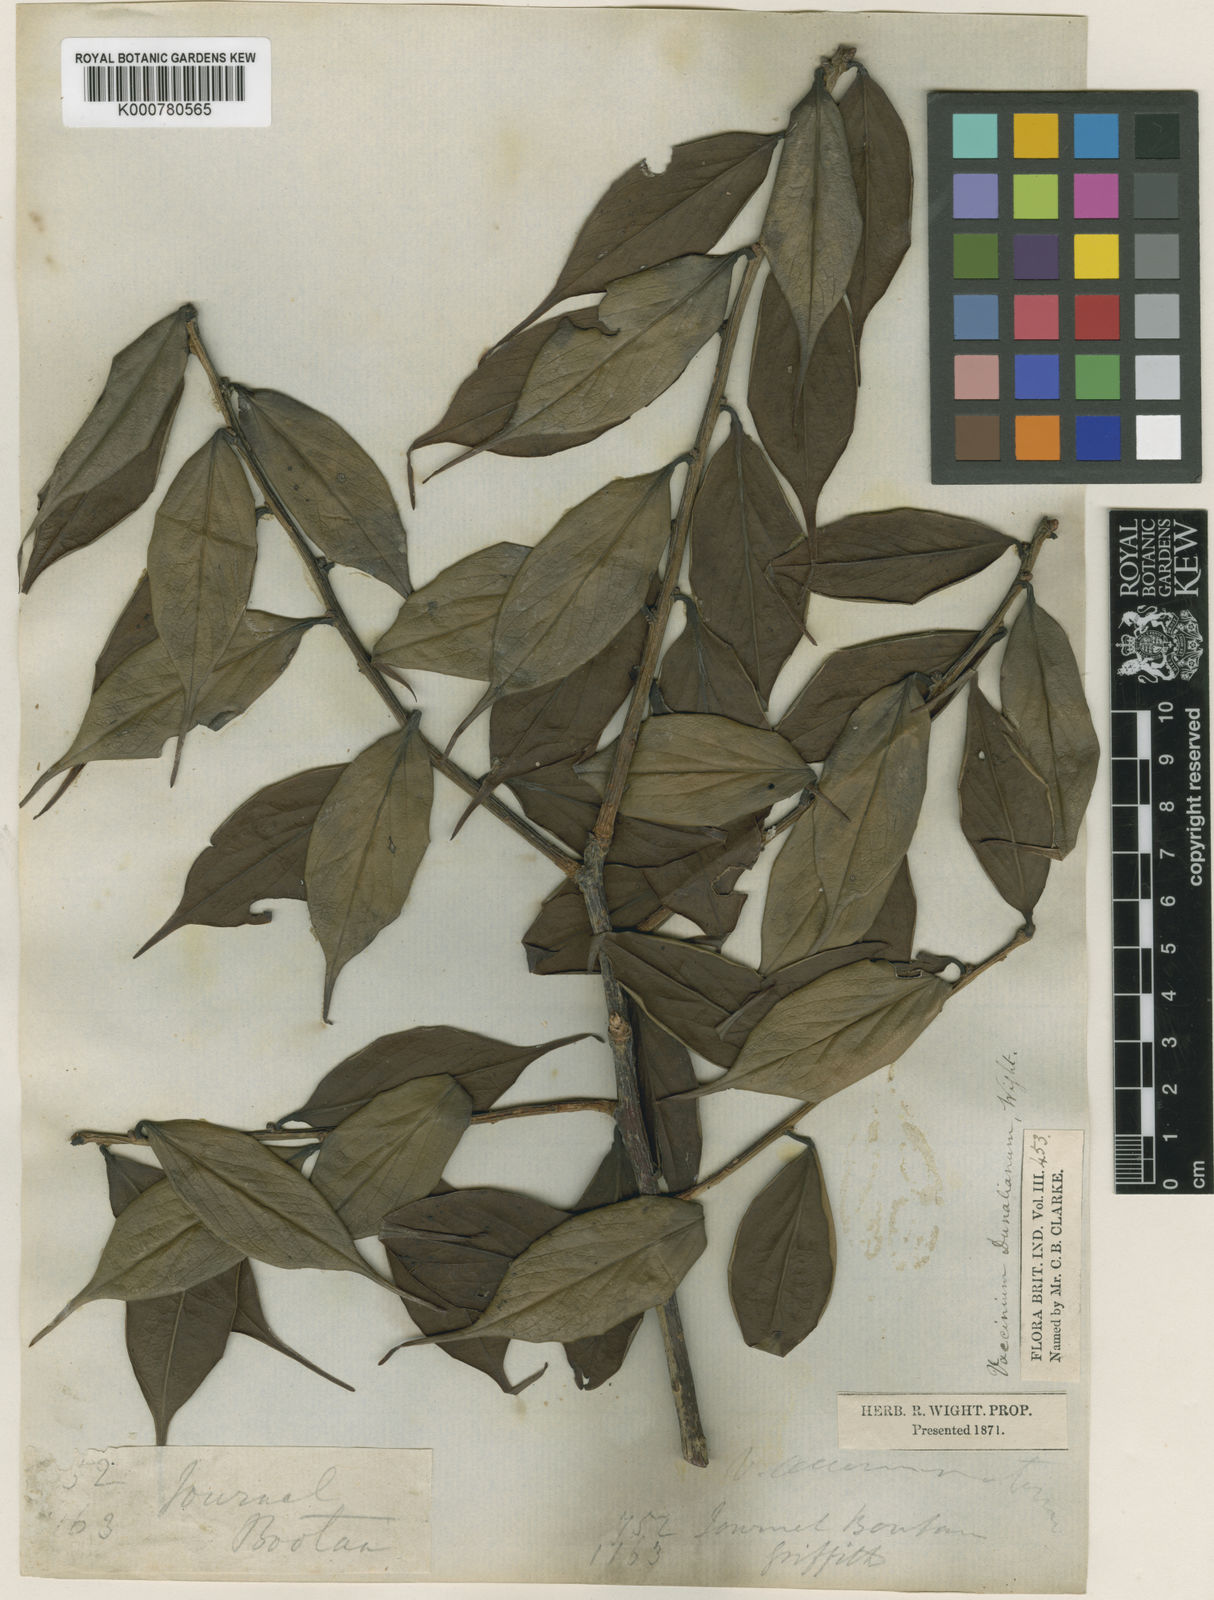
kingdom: Plantae
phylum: Tracheophyta
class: Magnoliopsida
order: Ericales
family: Ericaceae
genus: Vaccinium
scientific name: Vaccinium dunalianum
